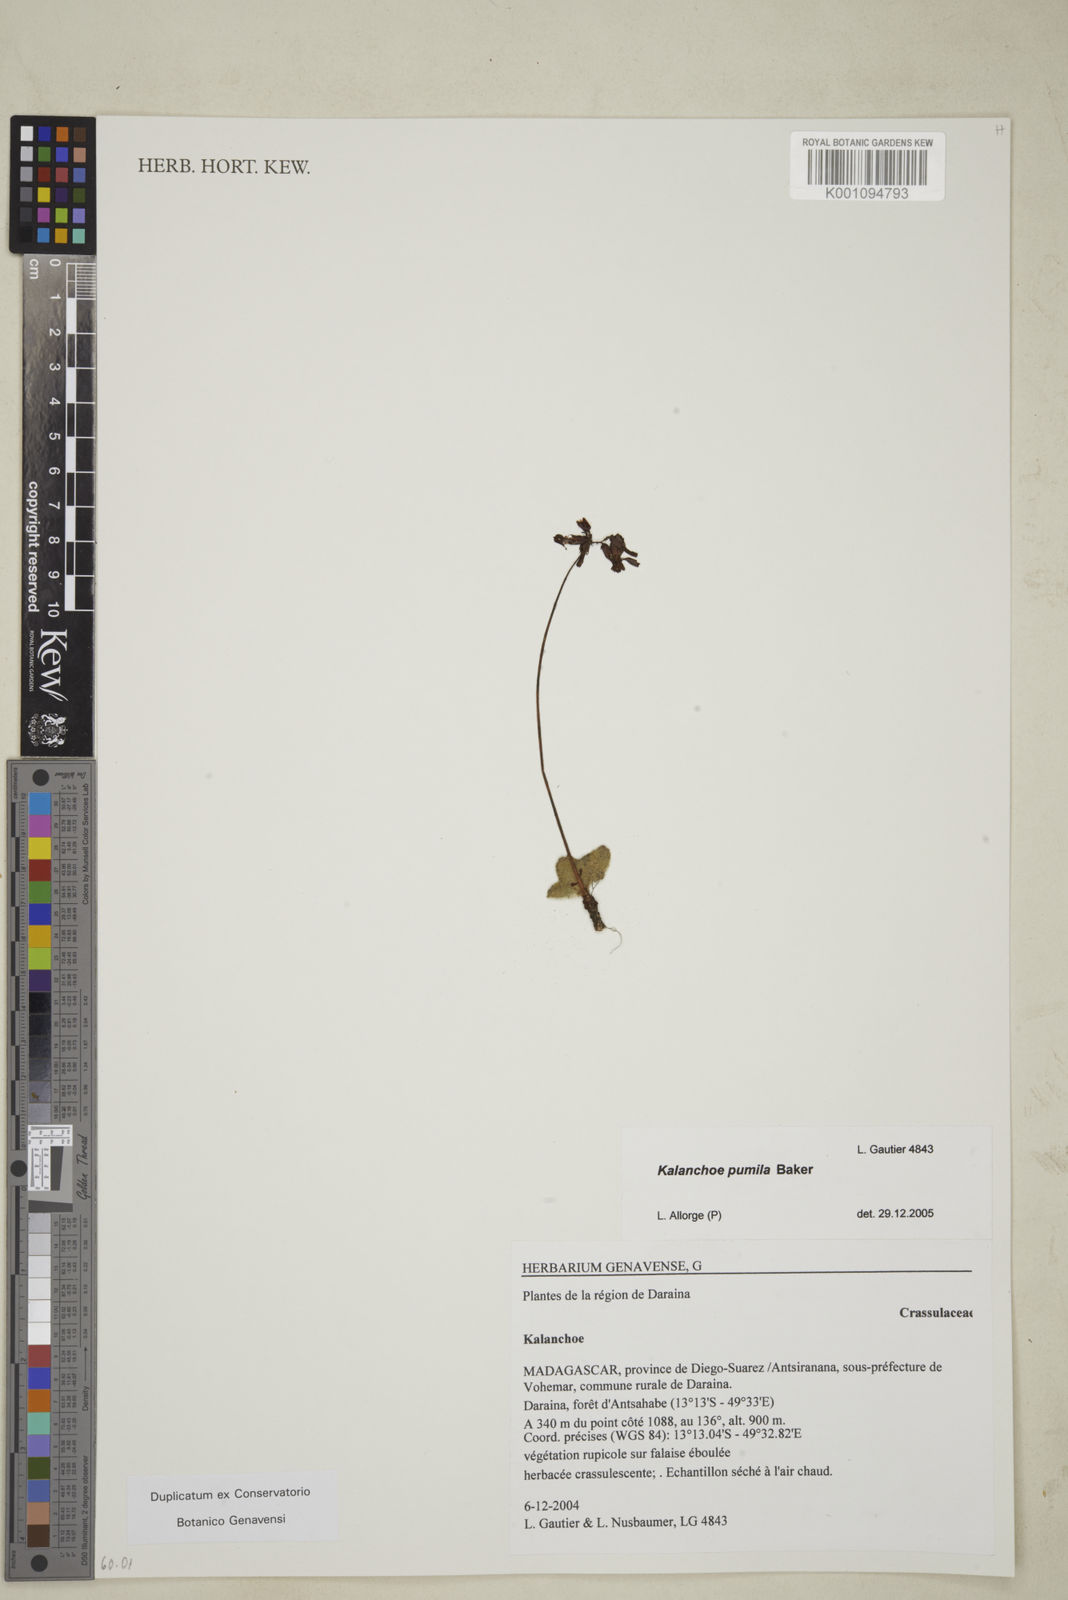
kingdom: Plantae
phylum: Tracheophyta
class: Magnoliopsida
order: Saxifragales
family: Crassulaceae
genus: Kalanchoe
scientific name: Kalanchoe pumila
